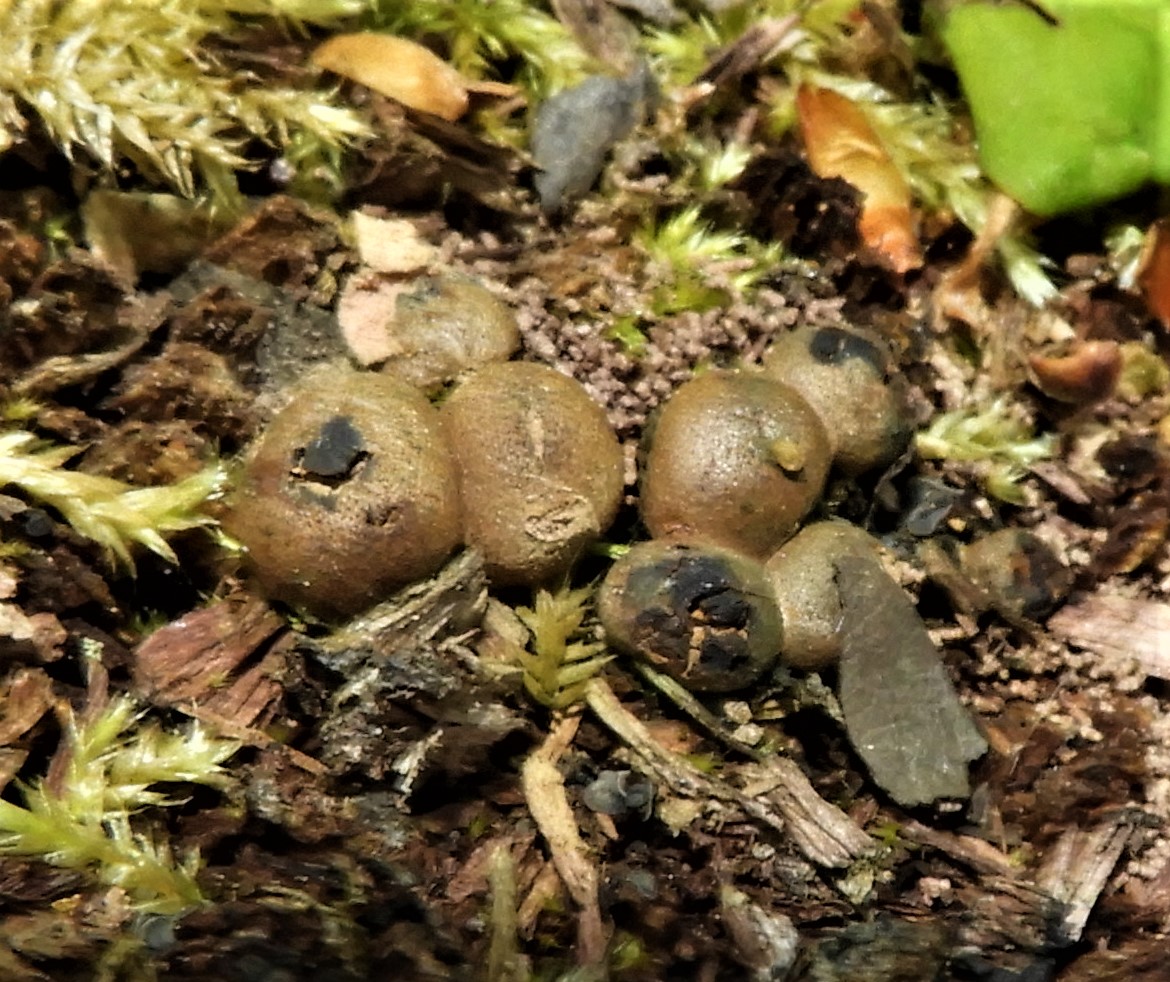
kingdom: Protozoa
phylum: Mycetozoa
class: Myxomycetes
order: Cribrariales
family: Tubiferaceae
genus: Lycogala
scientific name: Lycogala epidendrum
